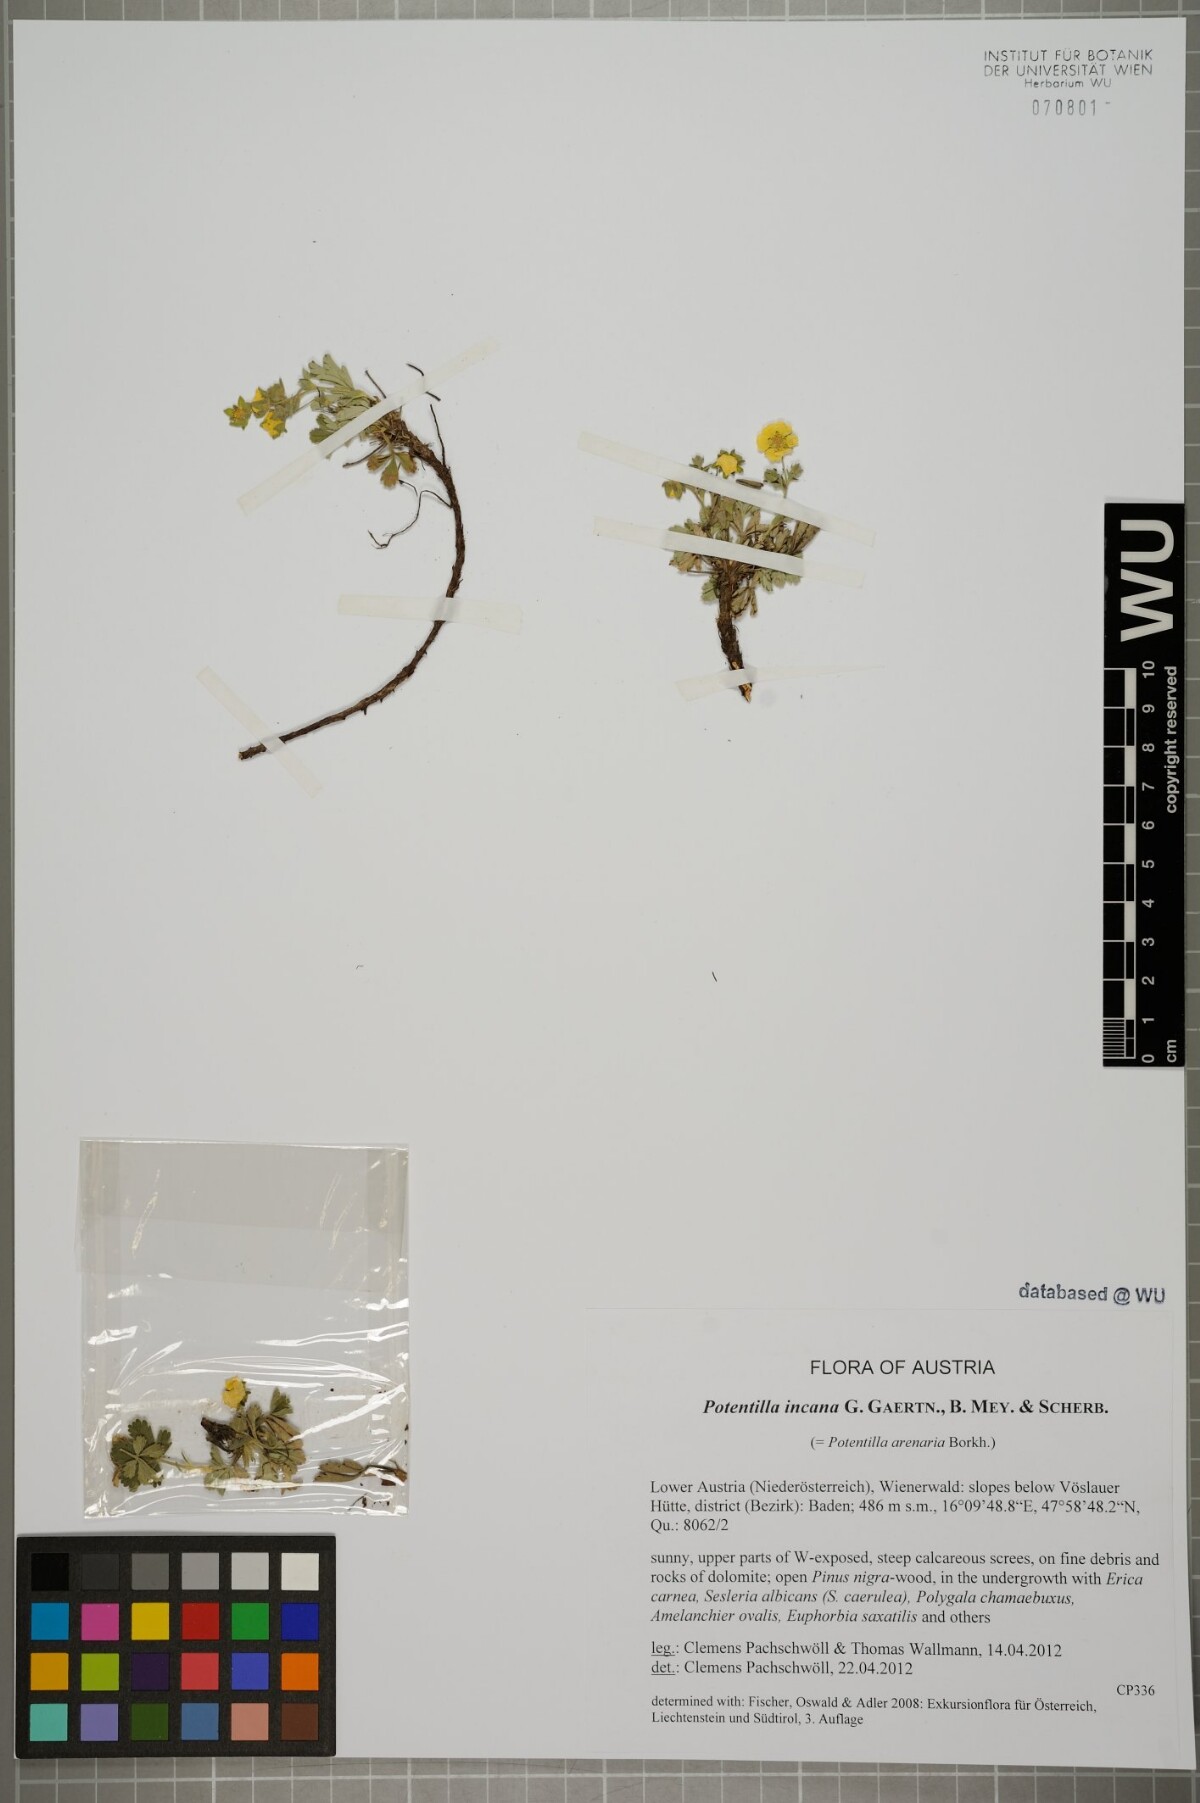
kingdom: Plantae
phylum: Tracheophyta
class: Magnoliopsida
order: Rosales
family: Rosaceae
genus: Potentilla
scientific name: Potentilla cinerea
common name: Ashy cinquefoil
